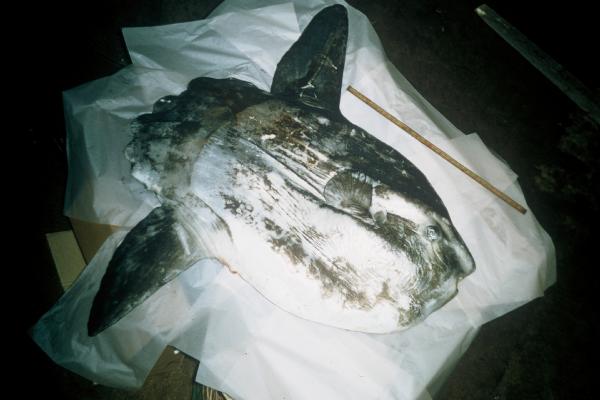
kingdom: Animalia
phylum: Chordata
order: Tetraodontiformes
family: Molidae
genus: Mola
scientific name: Mola mola
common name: Ocean sunfish
